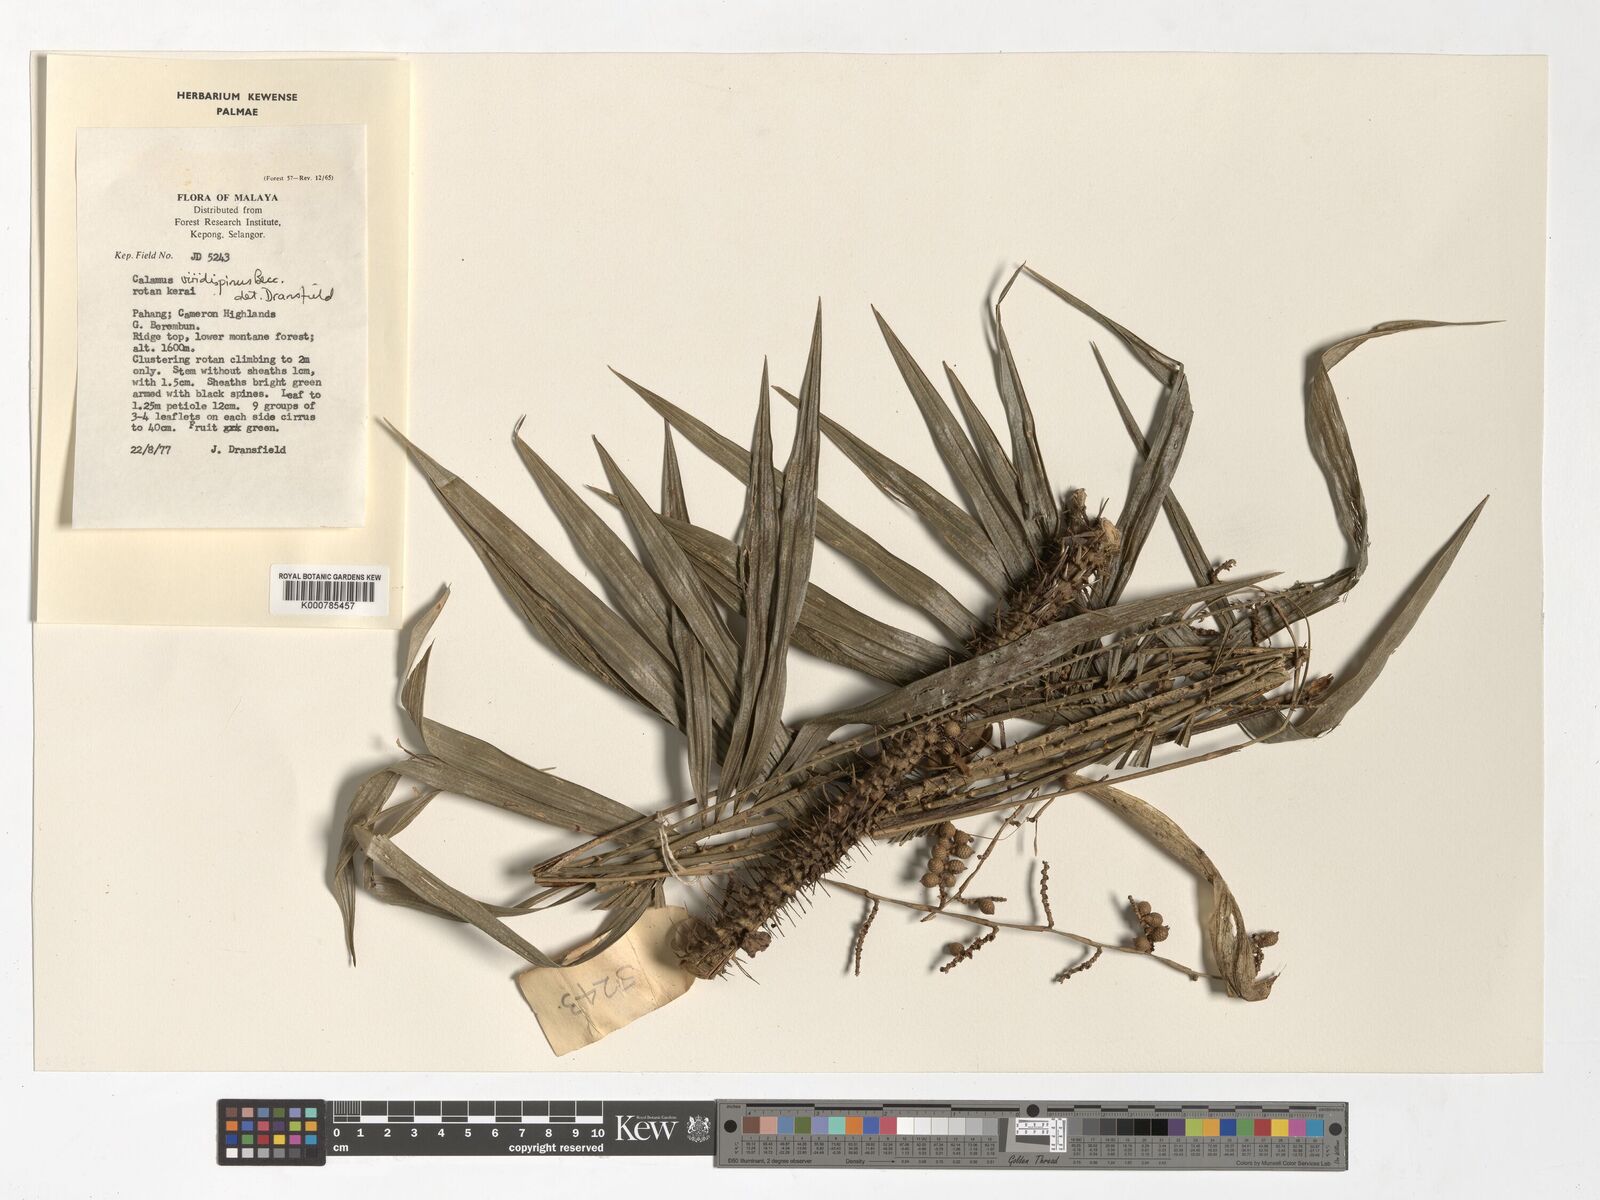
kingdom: Plantae
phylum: Tracheophyta
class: Liliopsida
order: Arecales
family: Arecaceae
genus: Calamus
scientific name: Calamus helferianus
